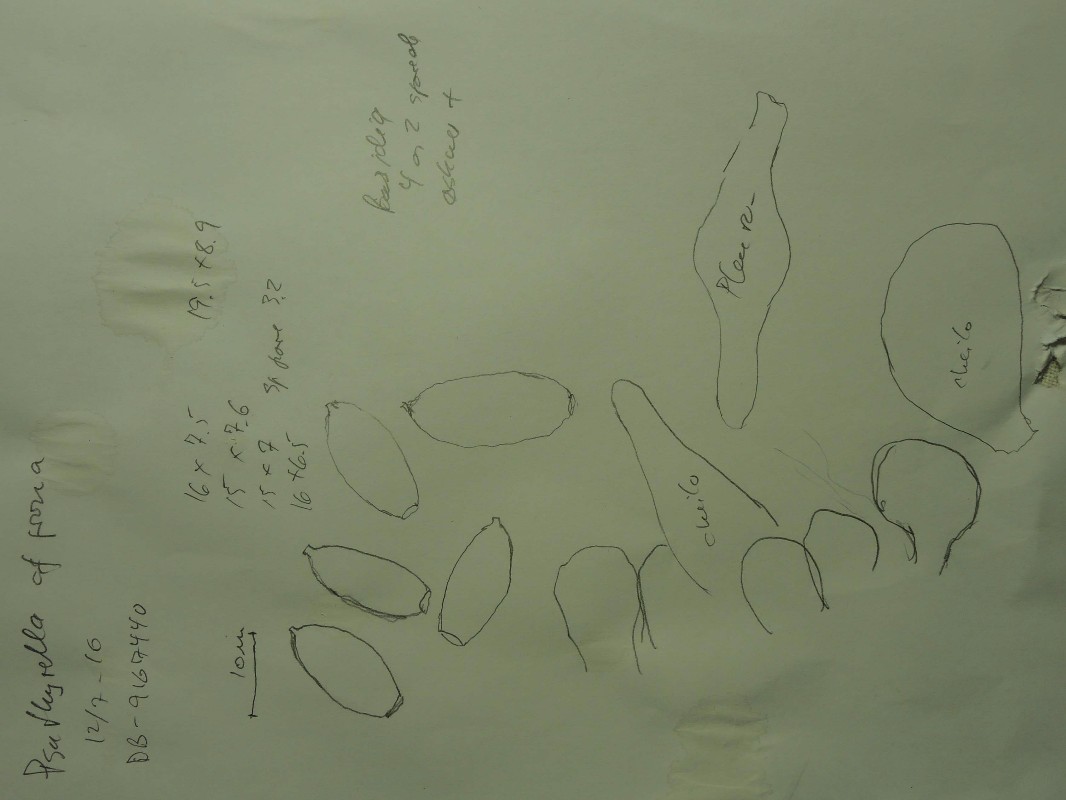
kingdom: Fungi
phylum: Basidiomycota
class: Agaricomycetes
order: Agaricales
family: Psathyrellaceae
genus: Psathyrella
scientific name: Psathyrella
